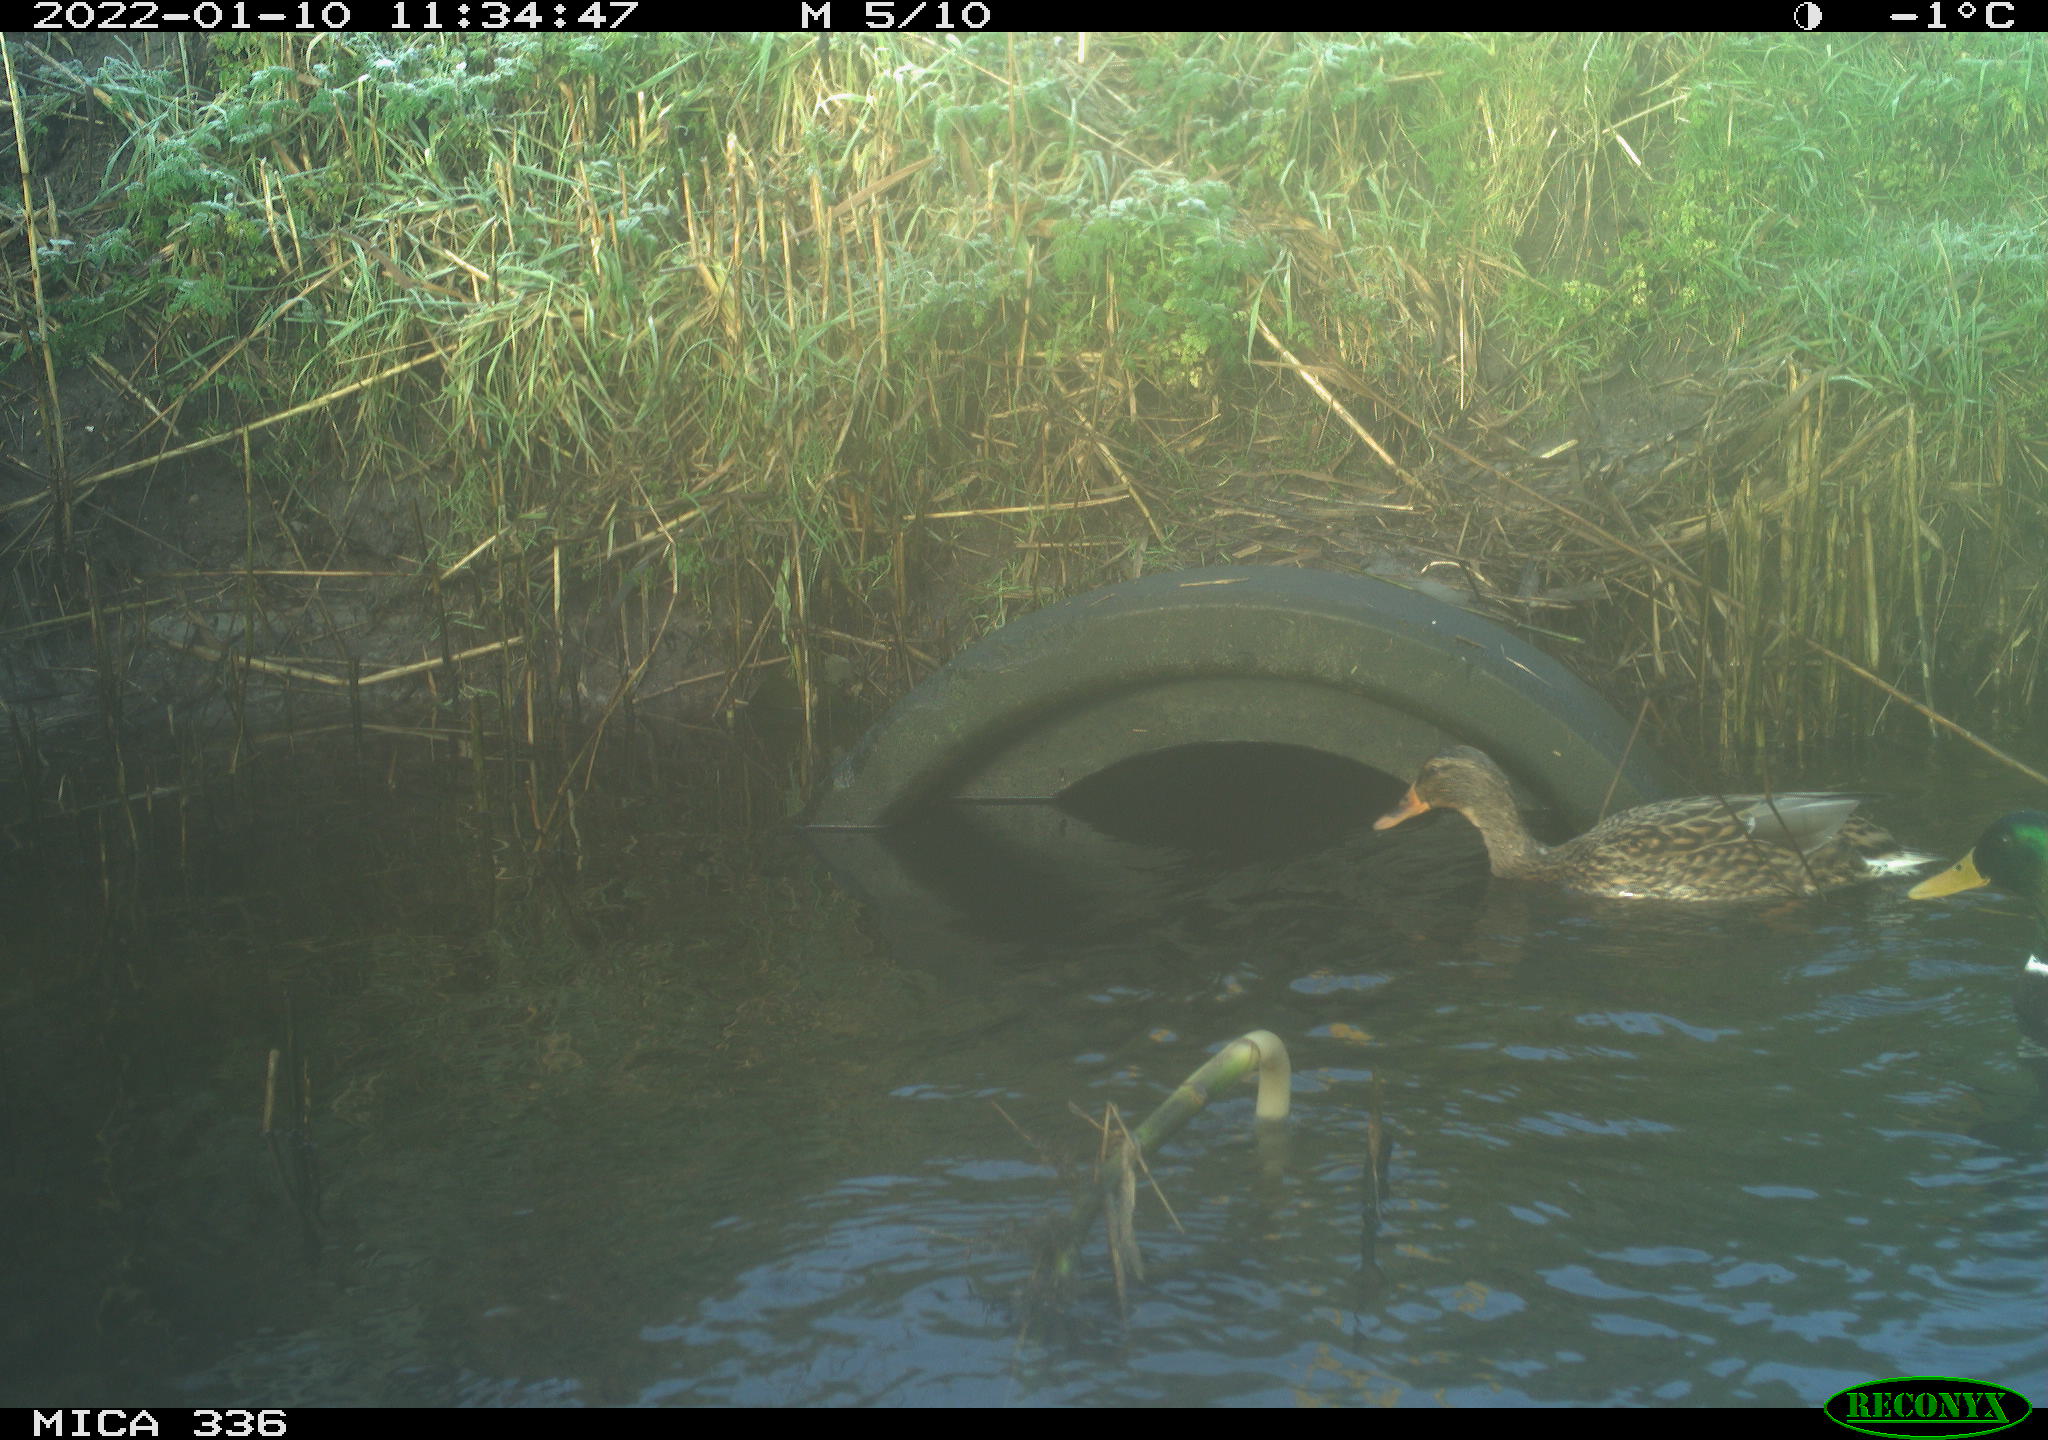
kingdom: Animalia
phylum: Chordata
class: Aves
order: Anseriformes
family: Anatidae
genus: Anas
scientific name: Anas platyrhynchos
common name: Mallard
